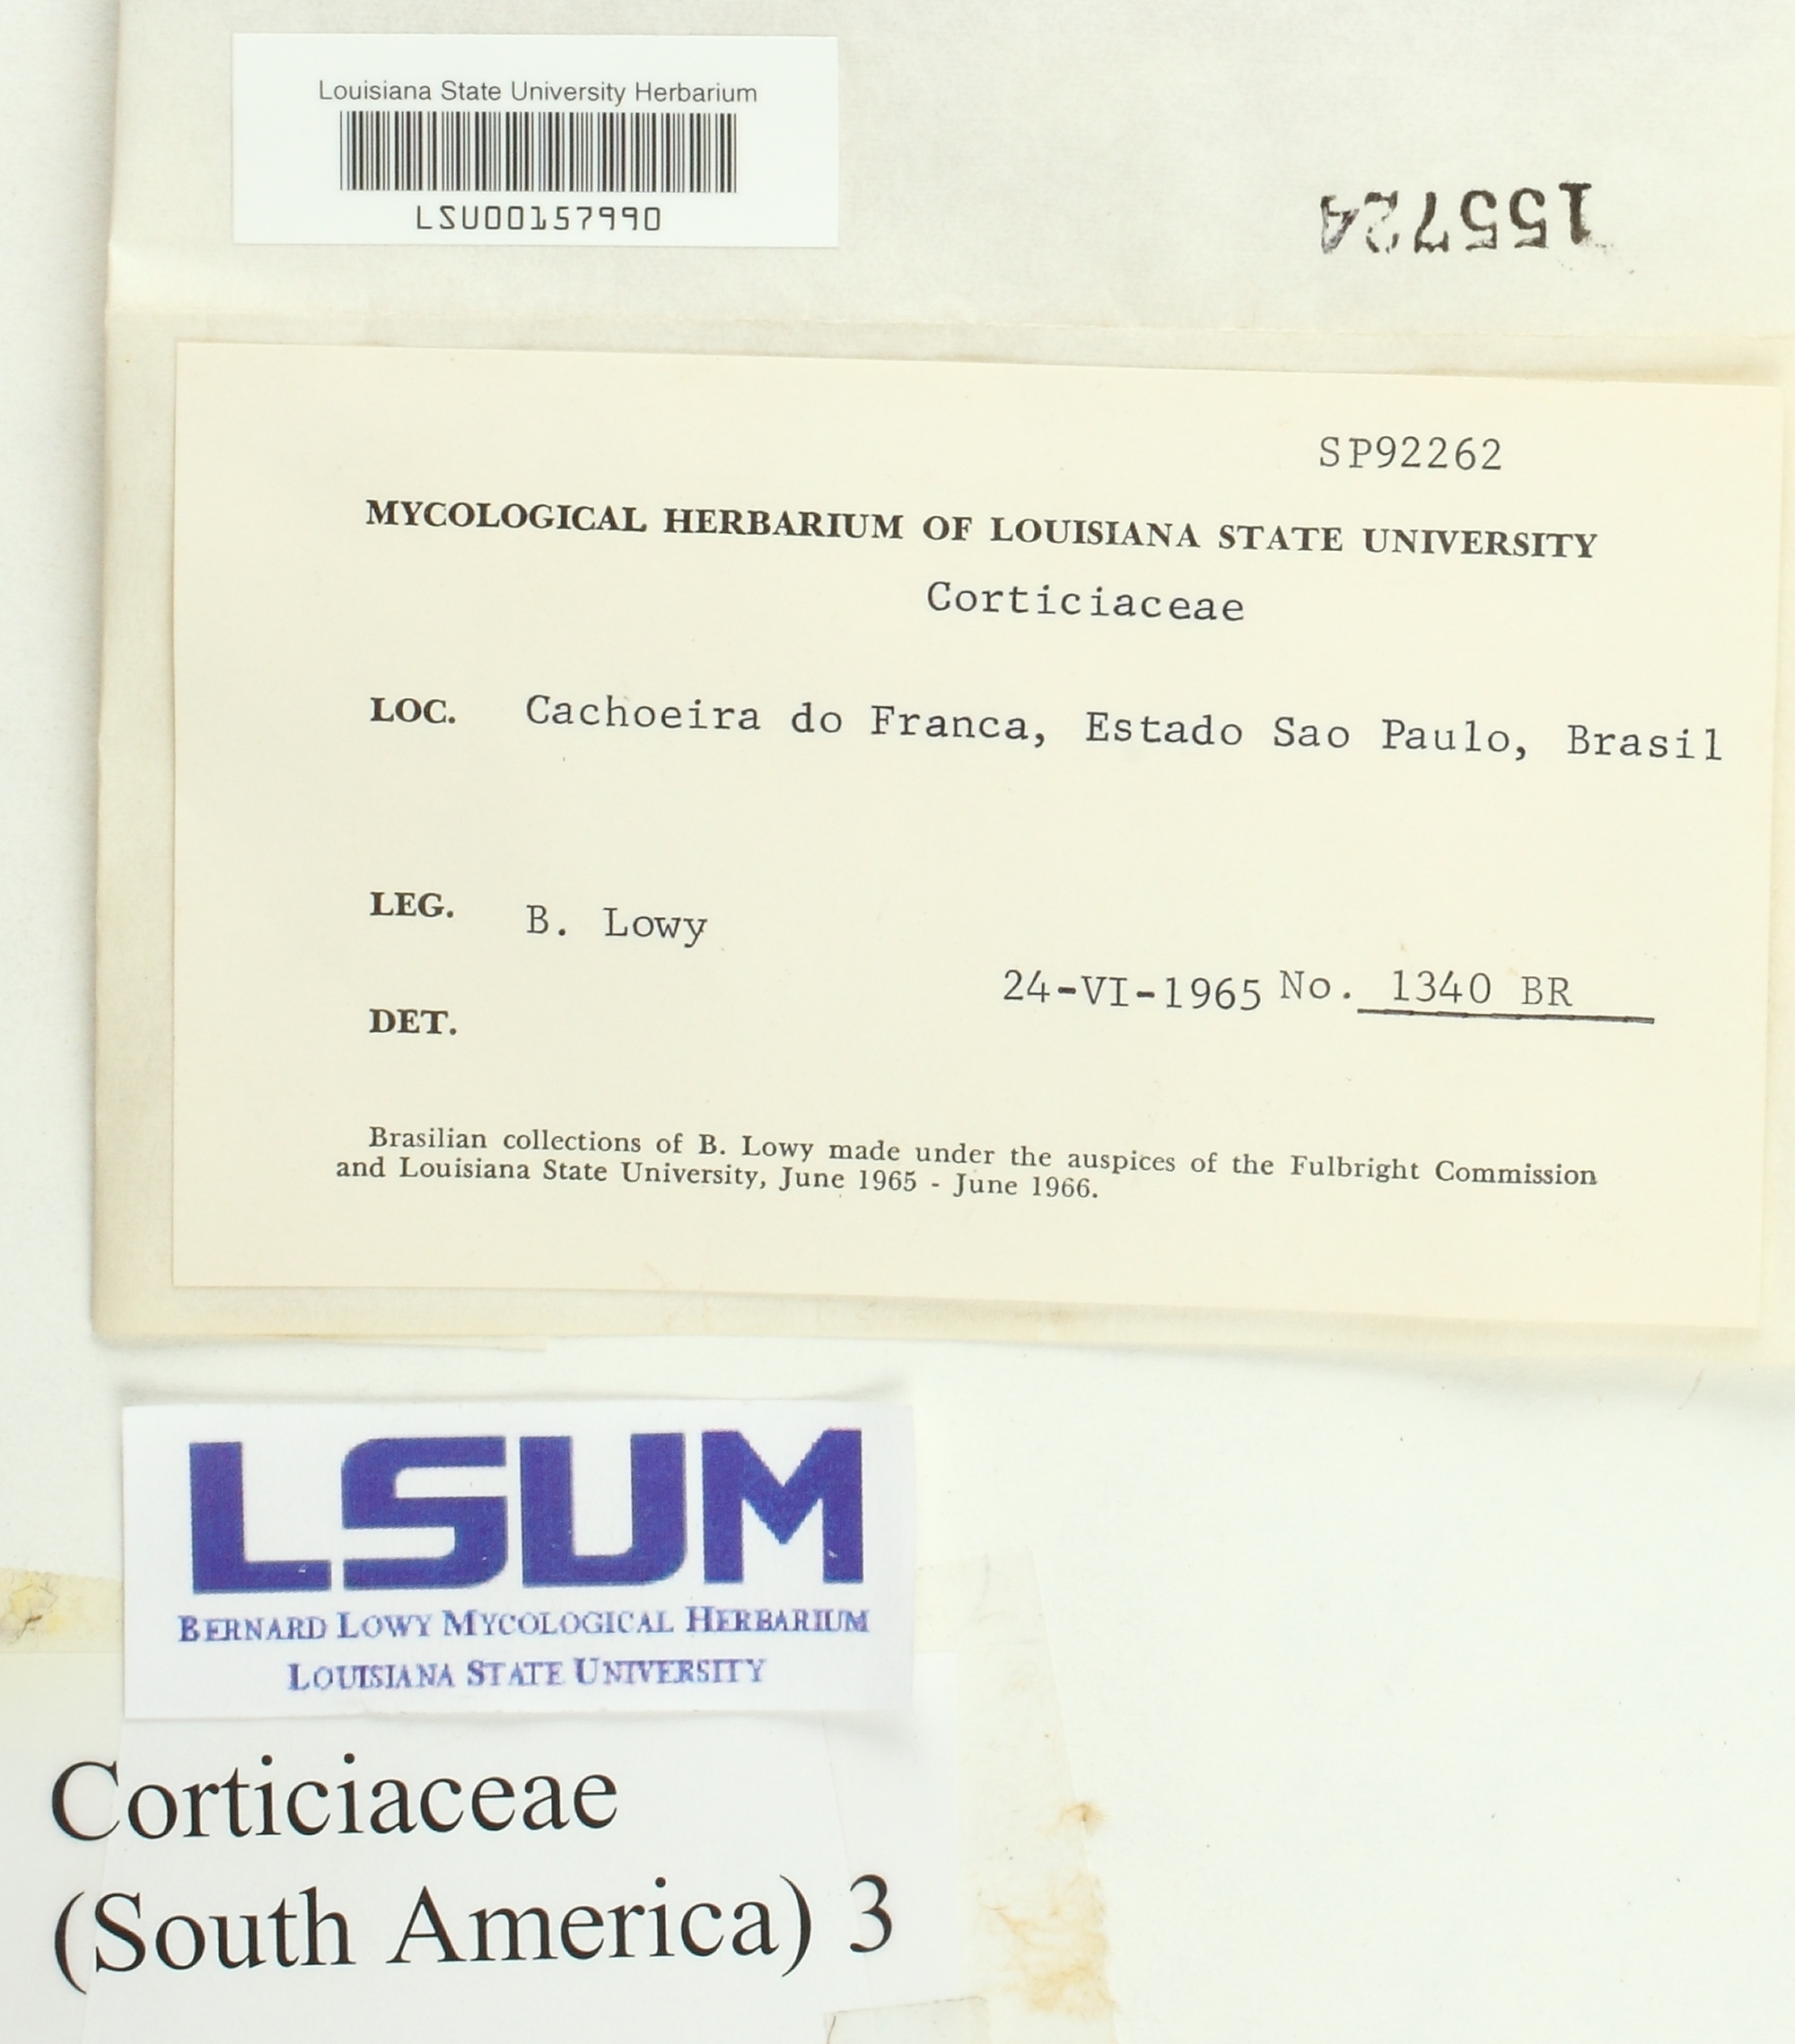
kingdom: Fungi
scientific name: Fungi
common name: Fungi
